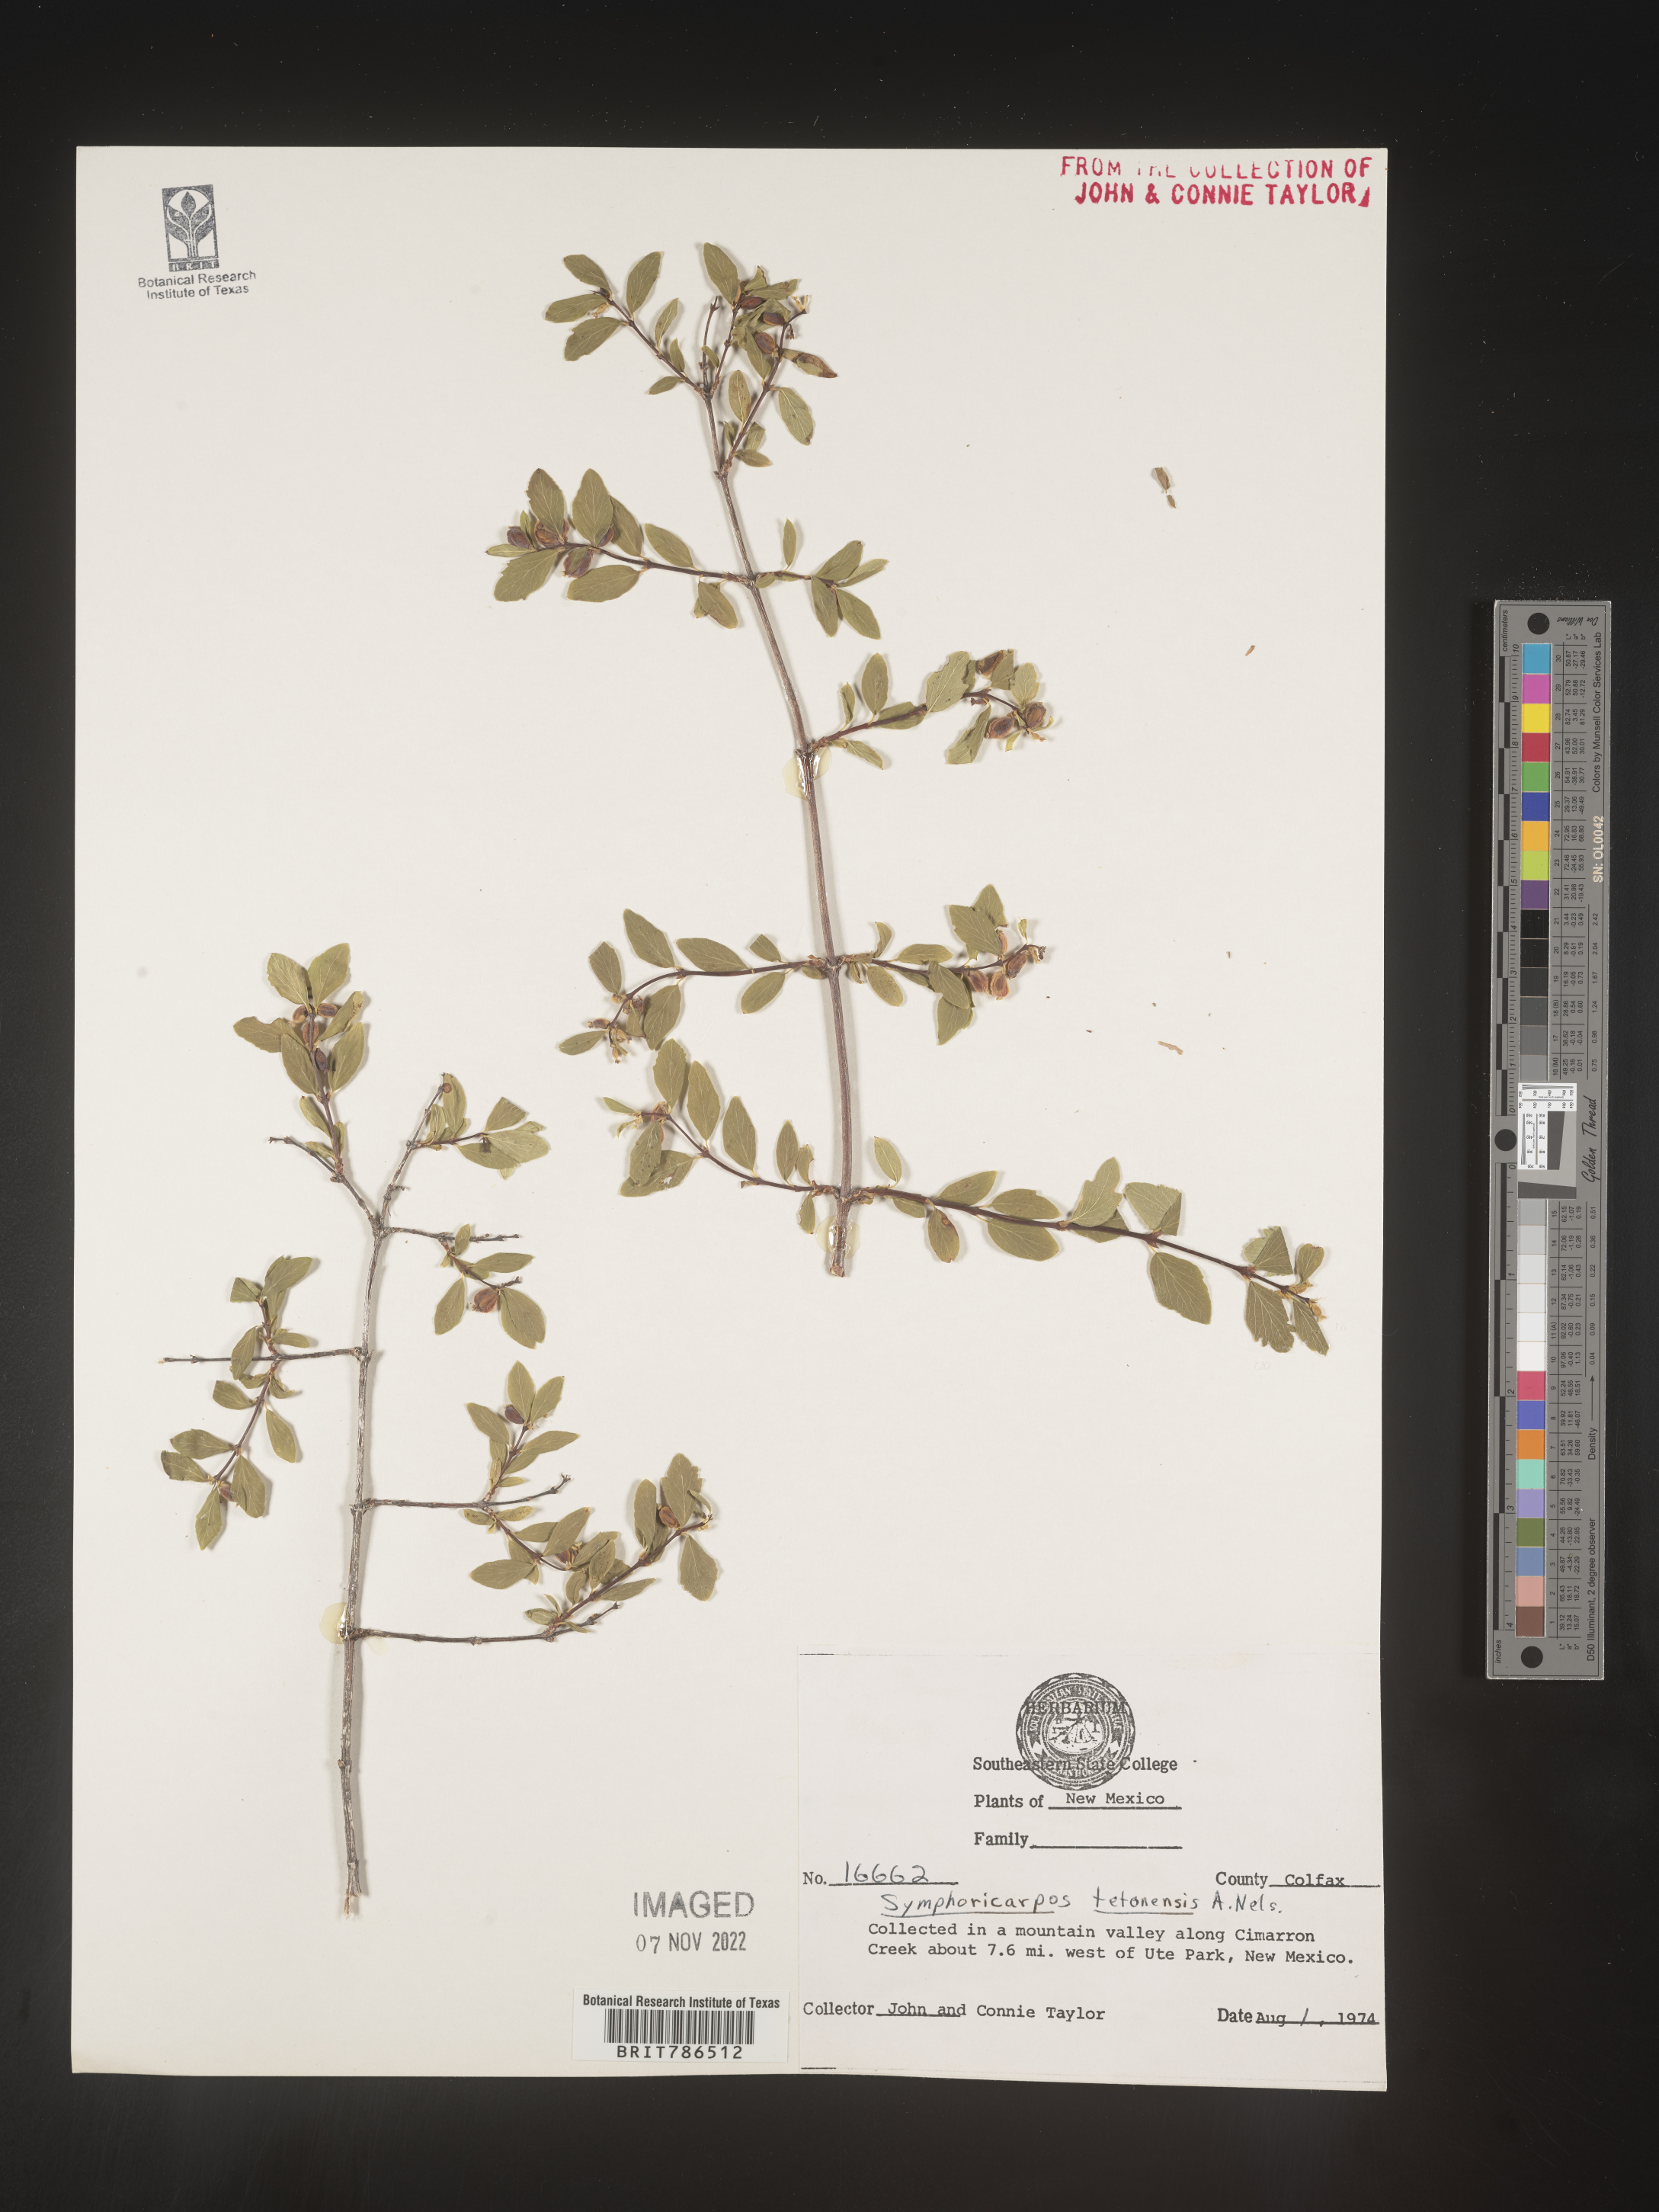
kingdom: Plantae
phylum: Tracheophyta
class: Magnoliopsida
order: Dipsacales
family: Caprifoliaceae
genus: Symphoricarpos
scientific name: Symphoricarpos
